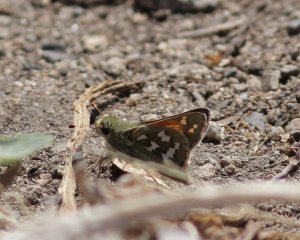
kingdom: Animalia
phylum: Arthropoda
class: Insecta
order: Lepidoptera
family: Hesperiidae
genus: Hesperia
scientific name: Hesperia juba
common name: Juba Skipper
